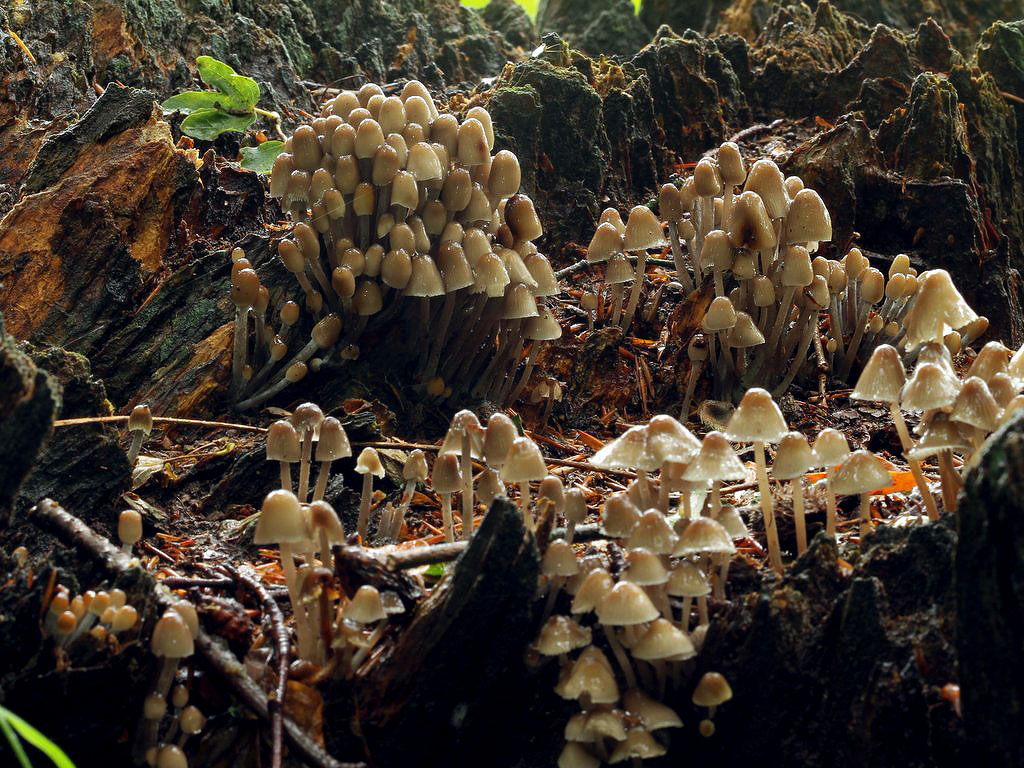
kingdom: Fungi
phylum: Basidiomycota
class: Agaricomycetes
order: Agaricales
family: Mycenaceae
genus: Mycena
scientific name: Mycena inclinata
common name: nikkende huesvamp
